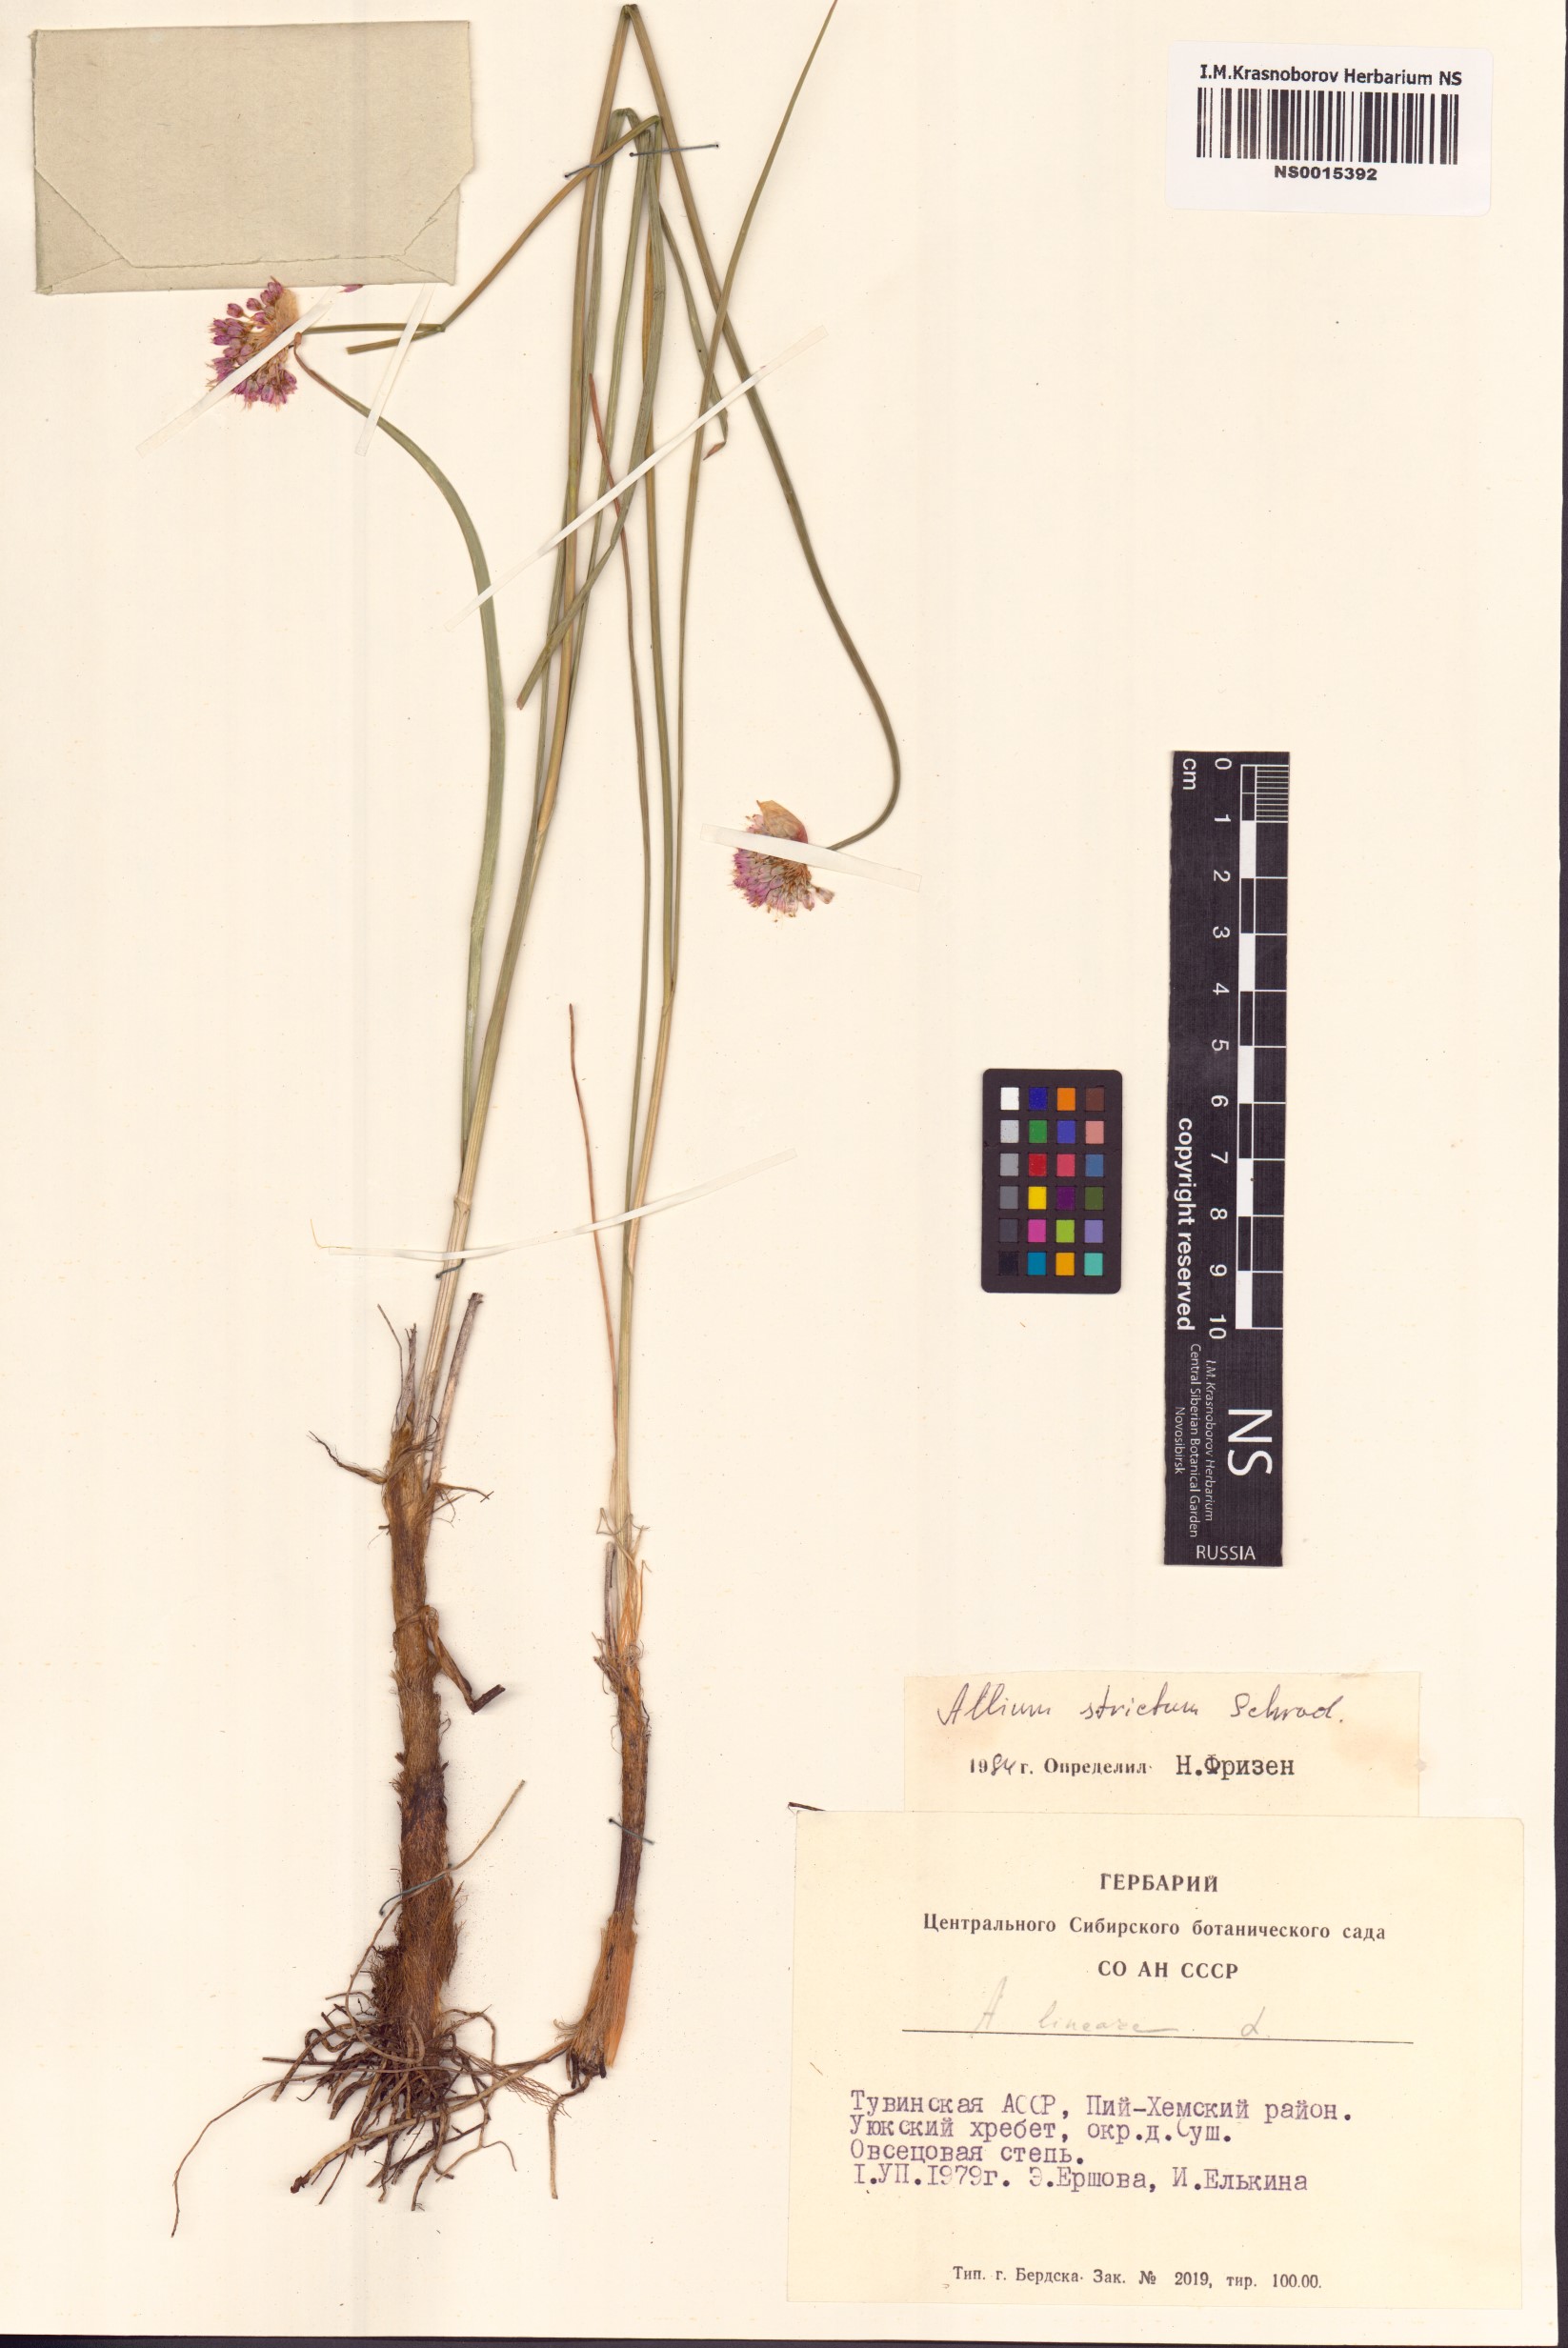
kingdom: Plantae
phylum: Tracheophyta
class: Liliopsida
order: Asparagales
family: Amaryllidaceae
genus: Allium
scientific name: Allium strictum
